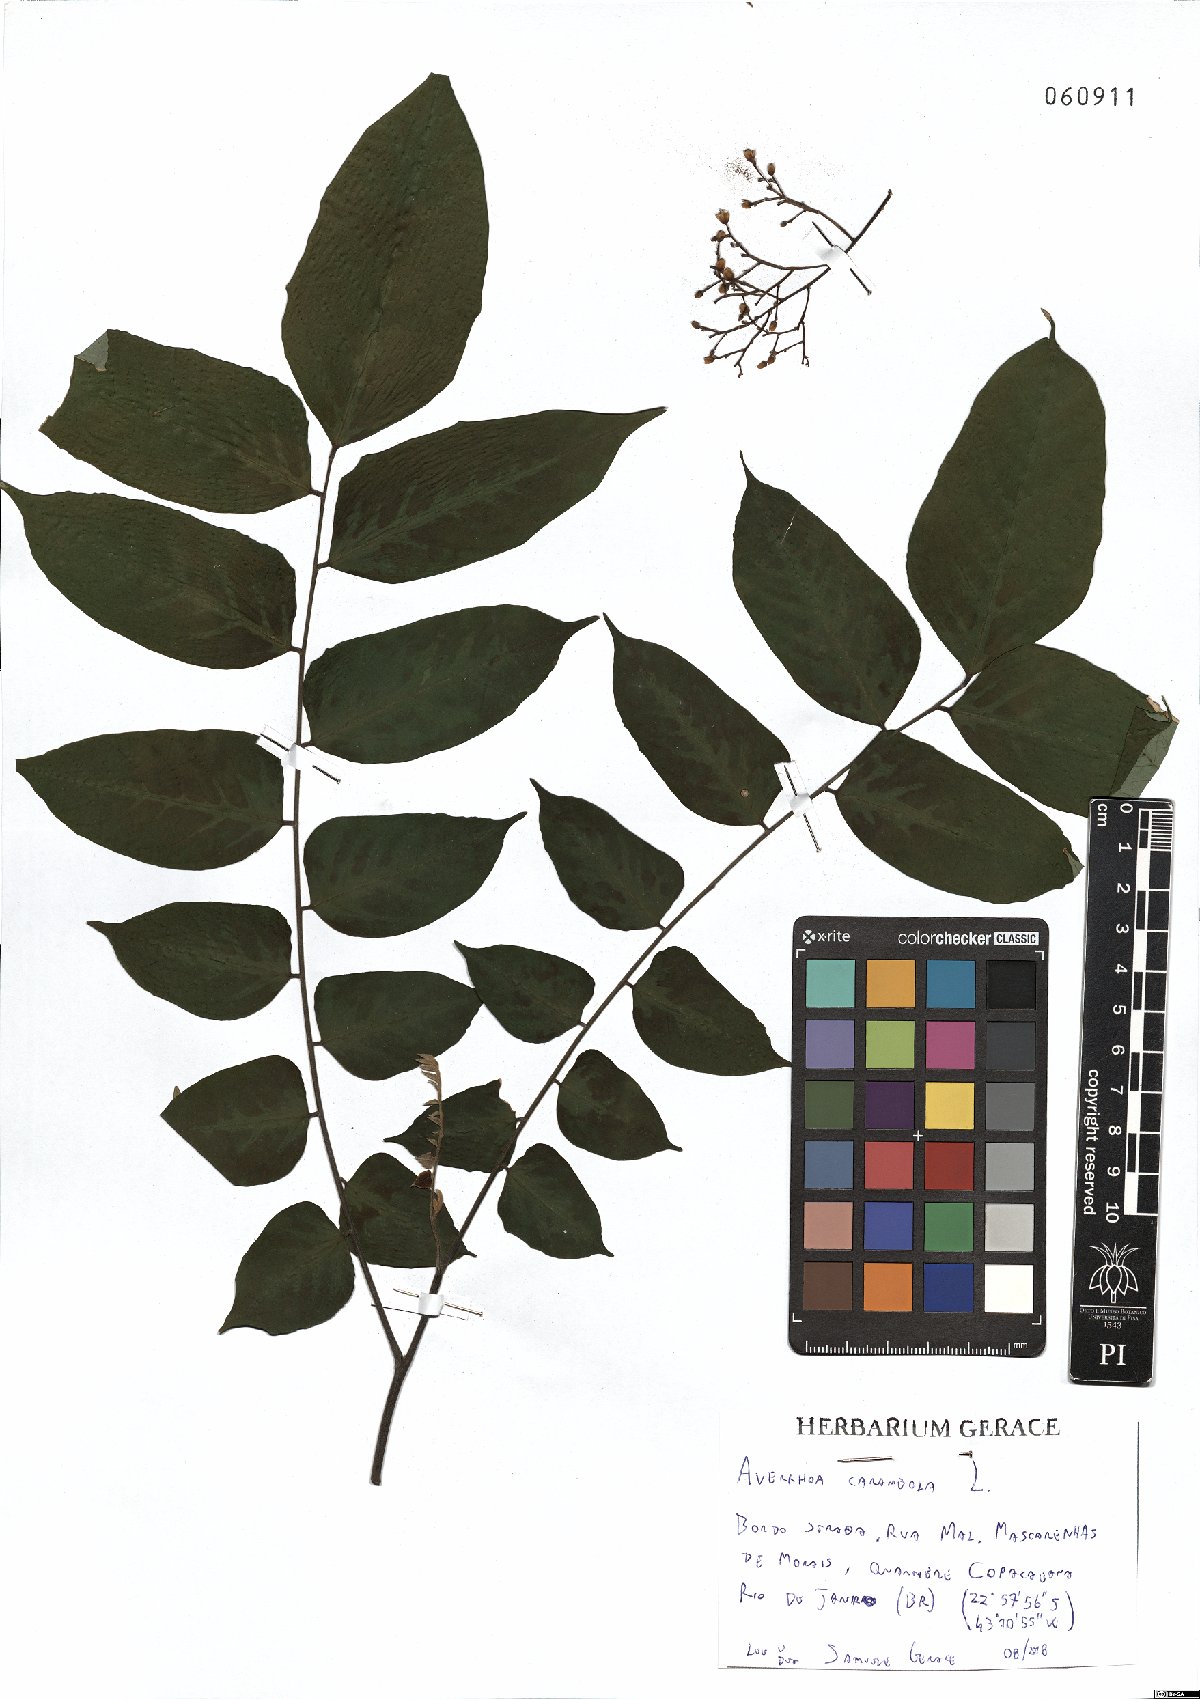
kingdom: Plantae
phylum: Tracheophyta
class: Magnoliopsida
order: Oxalidales
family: Oxalidaceae
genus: Averrhoa
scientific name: Averrhoa carambola
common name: Blimbing
